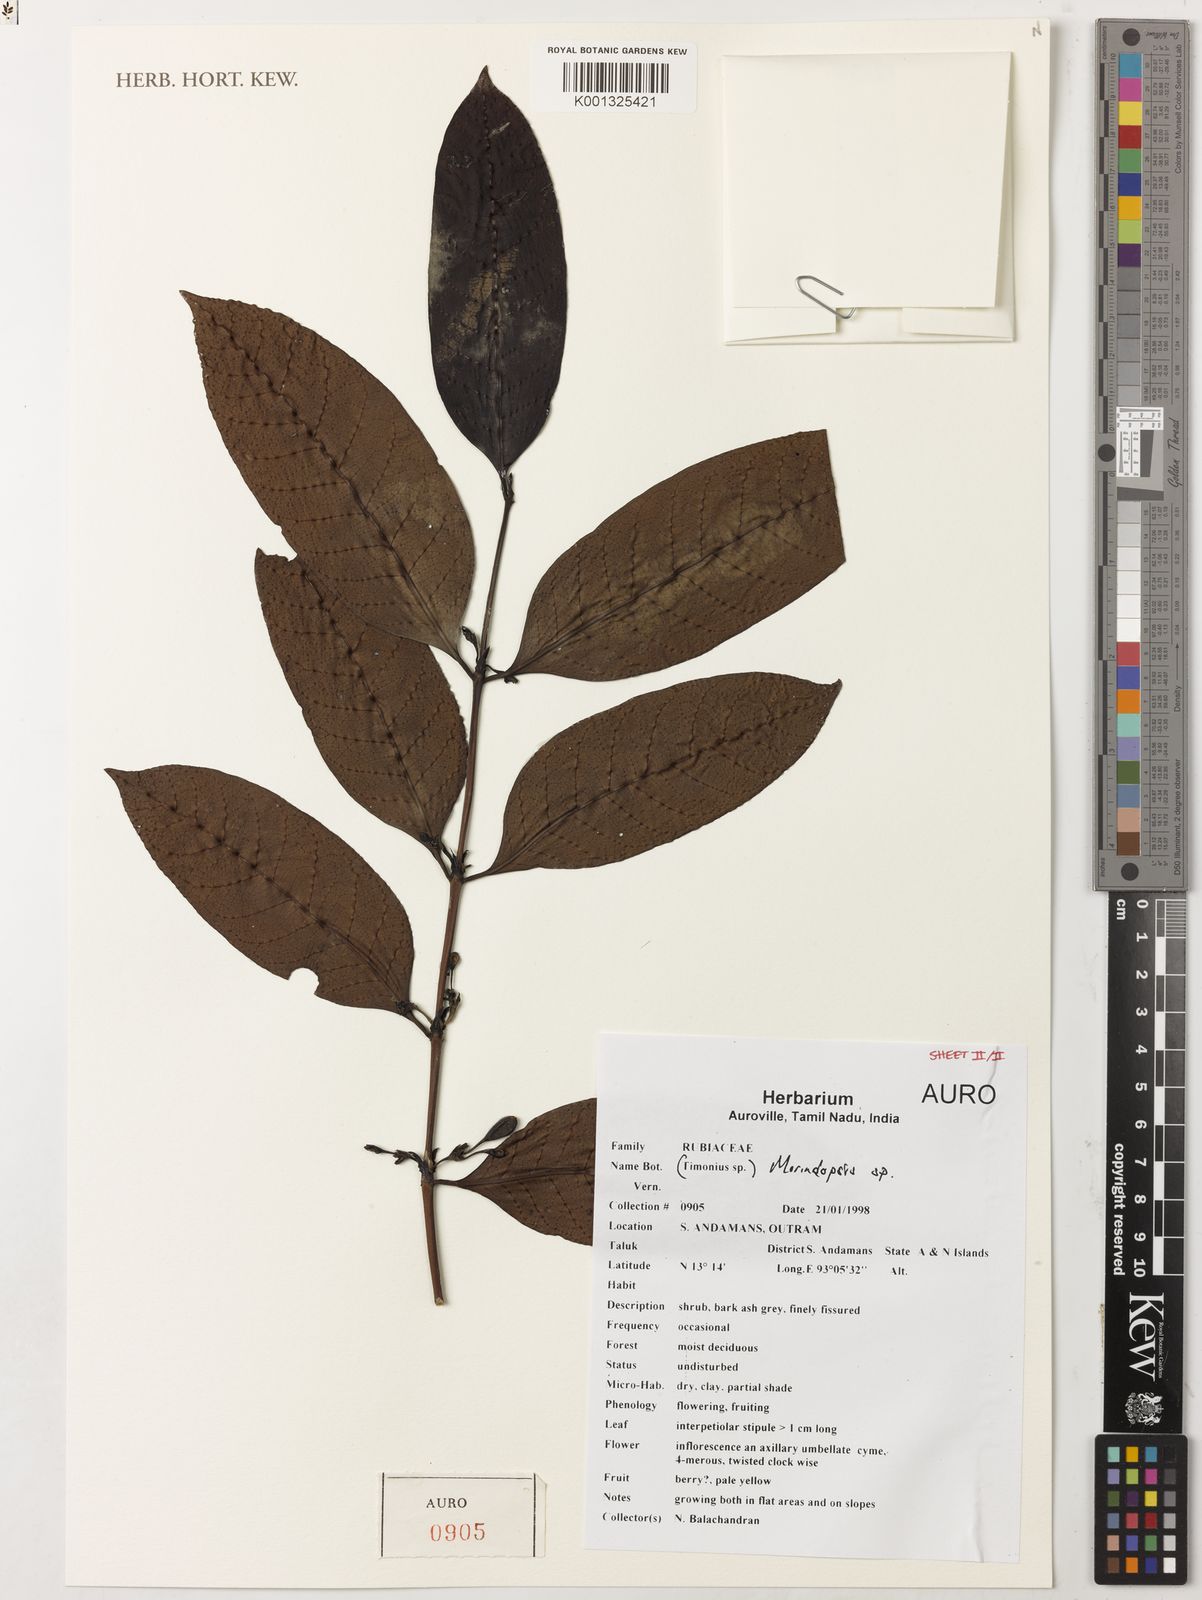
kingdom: Plantae
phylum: Tracheophyta
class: Magnoliopsida
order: Gentianales
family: Rubiaceae
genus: Morindopsis
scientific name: Morindopsis
